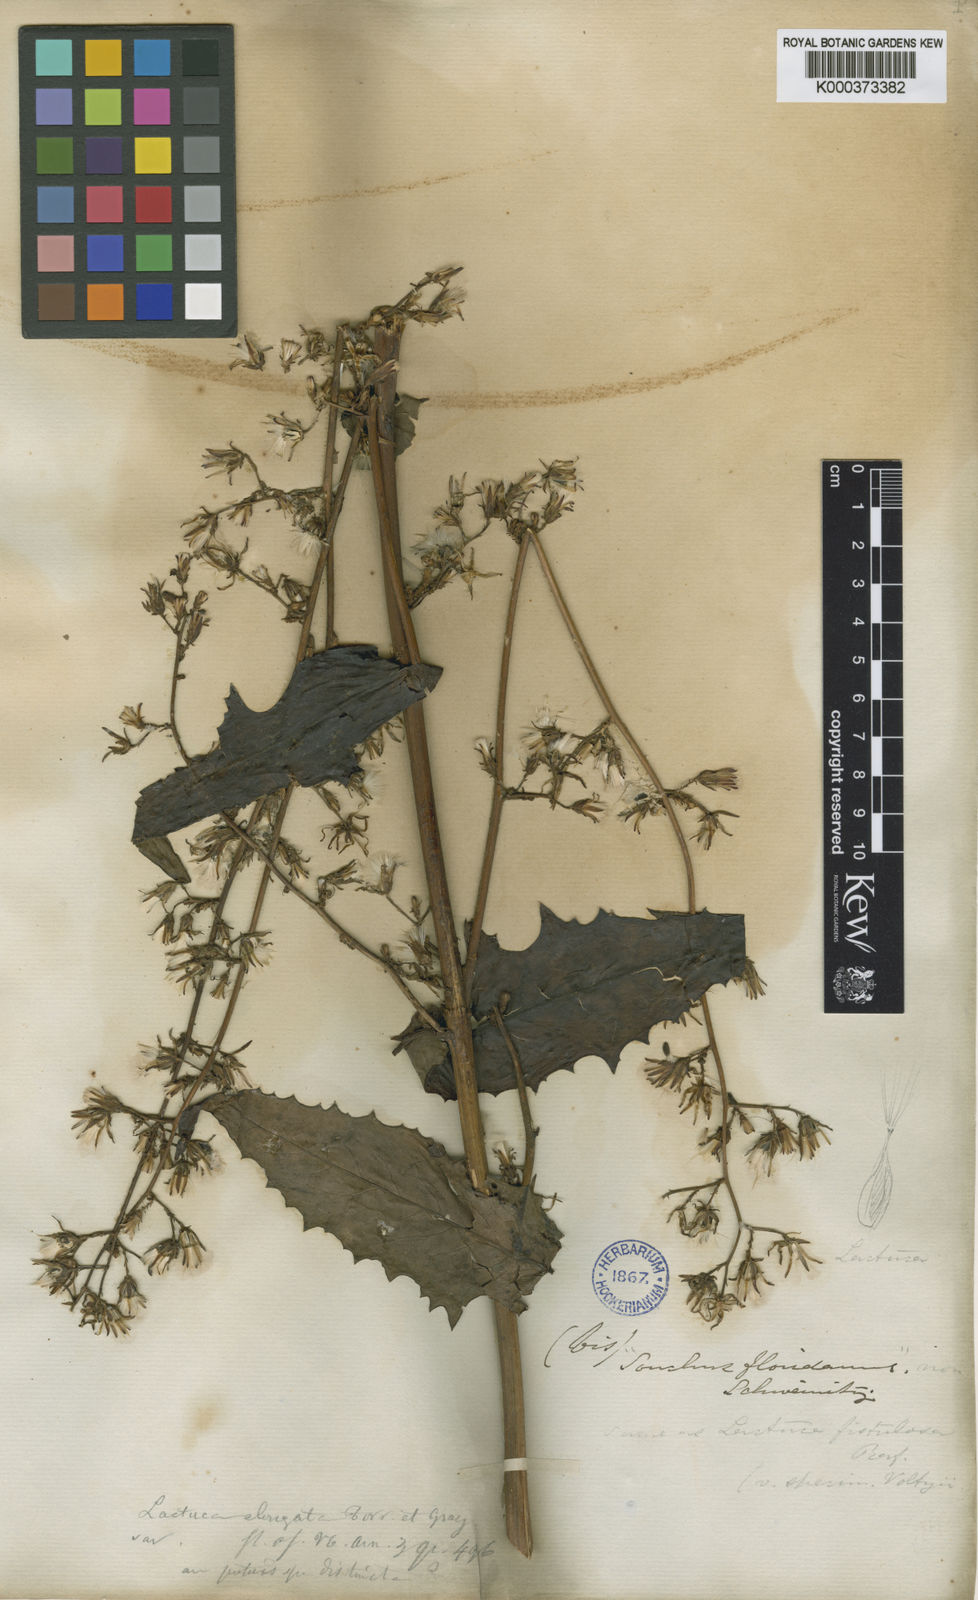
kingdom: Plantae
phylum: Tracheophyta
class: Magnoliopsida
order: Asterales
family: Asteraceae
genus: Lactuca
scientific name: Lactuca hirsuta
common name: Hairy lettuce
